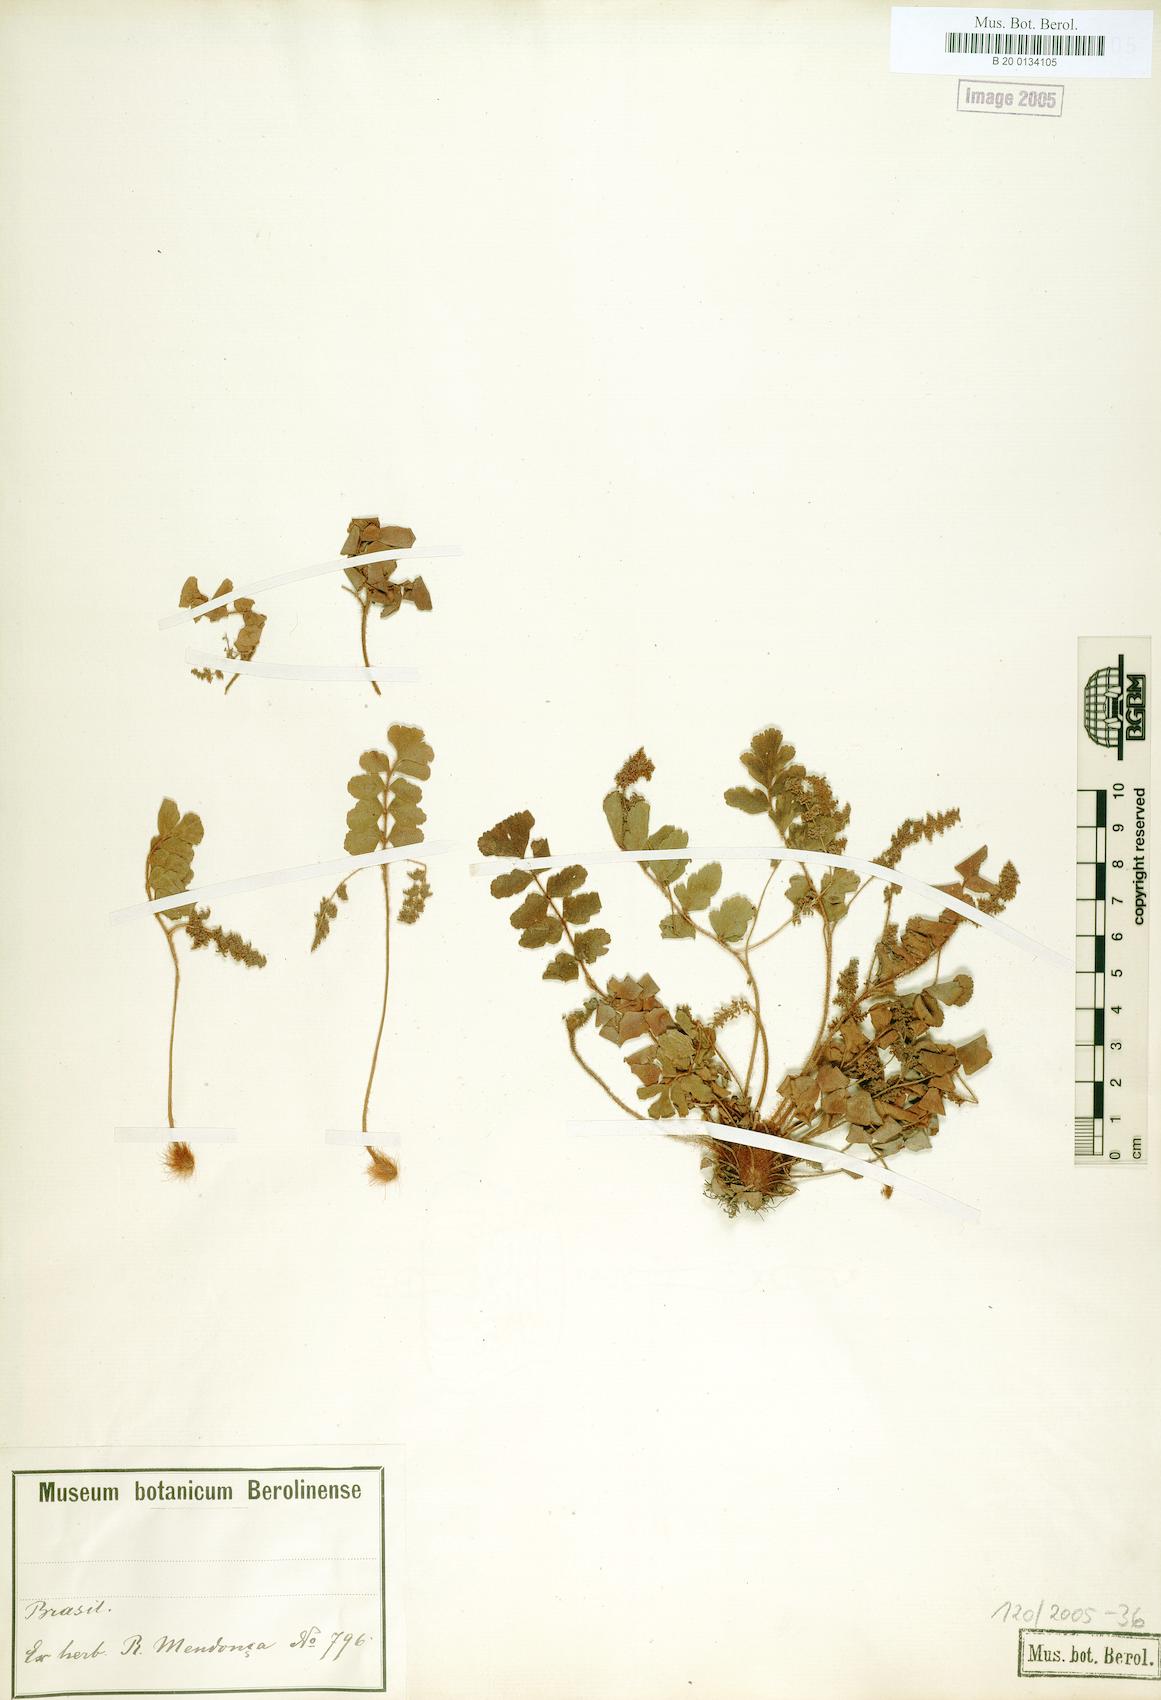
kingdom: Plantae
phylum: Tracheophyta
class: Polypodiopsida
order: Schizaeales
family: Anemiaceae
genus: Anemia
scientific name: Anemia lanuginosa
